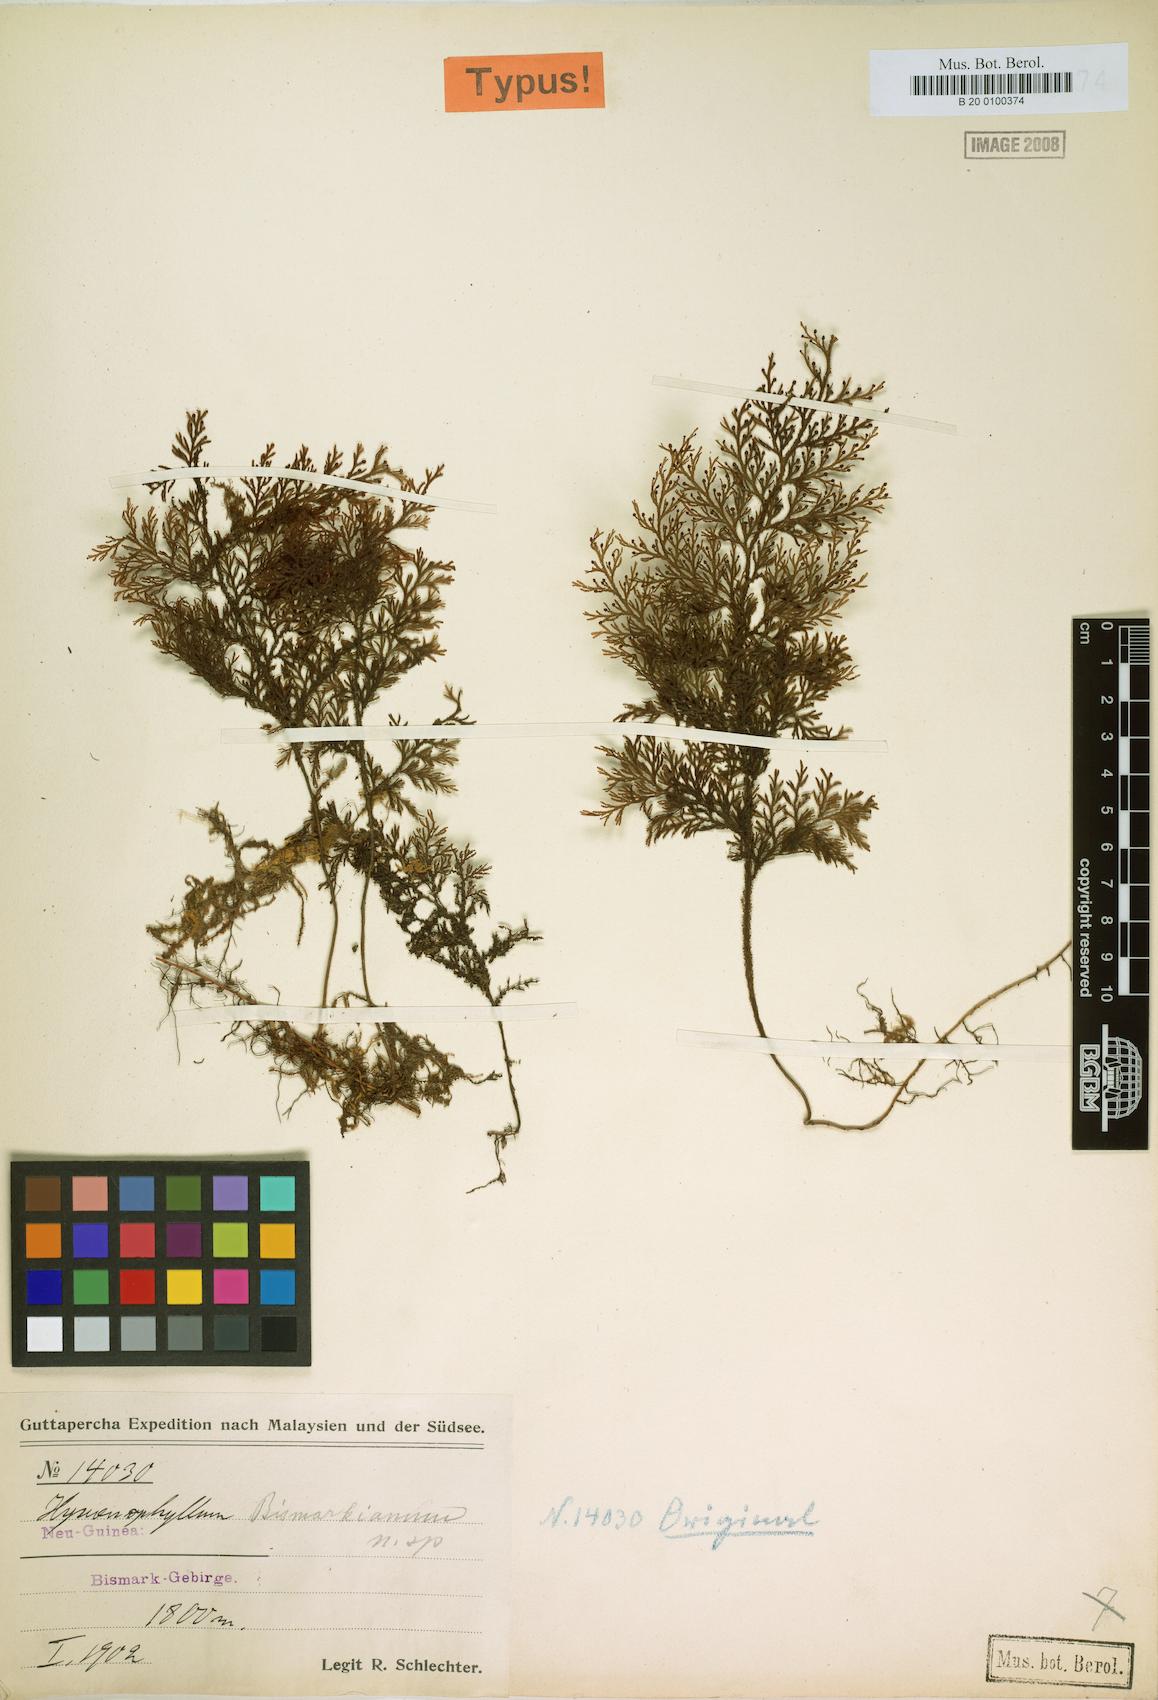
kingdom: Plantae
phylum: Tracheophyta
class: Polypodiopsida
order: Hymenophyllales
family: Hymenophyllaceae
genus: Hymenophyllum
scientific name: Hymenophyllum reinwardtii
